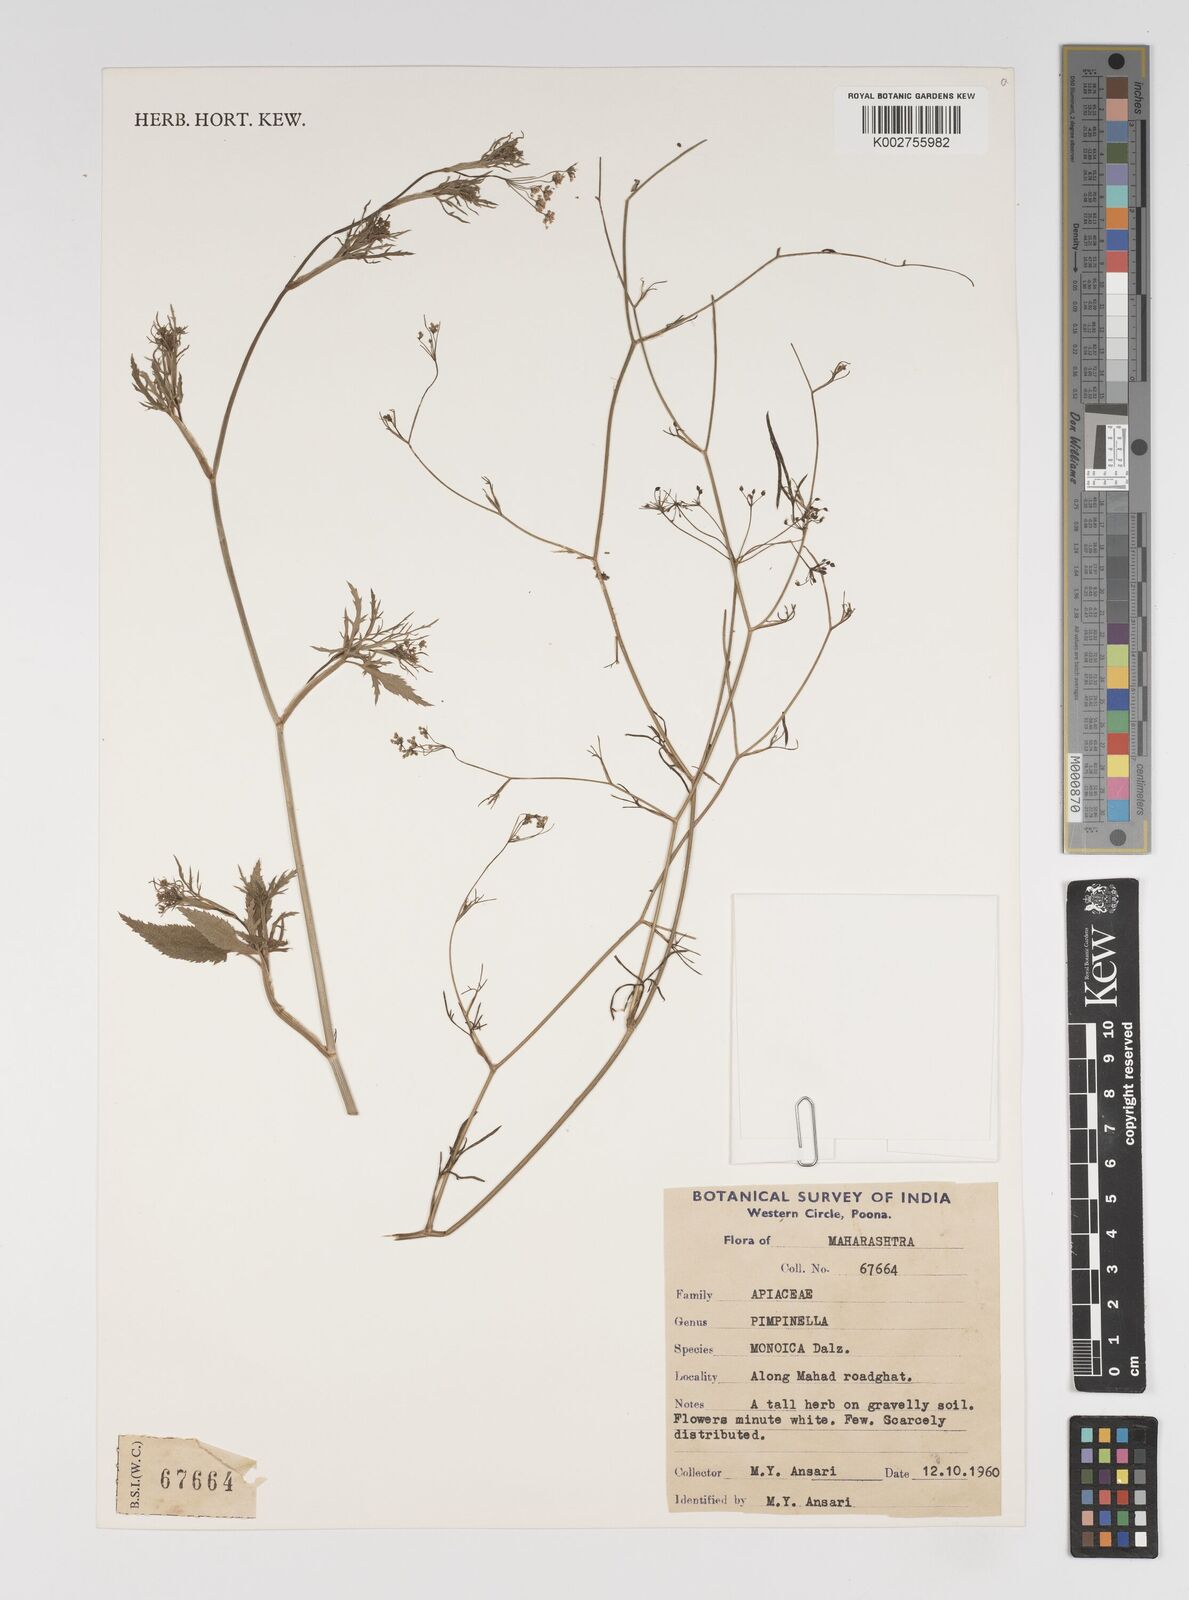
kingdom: Plantae
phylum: Tracheophyta
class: Magnoliopsida
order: Apiales
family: Apiaceae
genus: Pimpinella
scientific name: Pimpinella wallichiana
